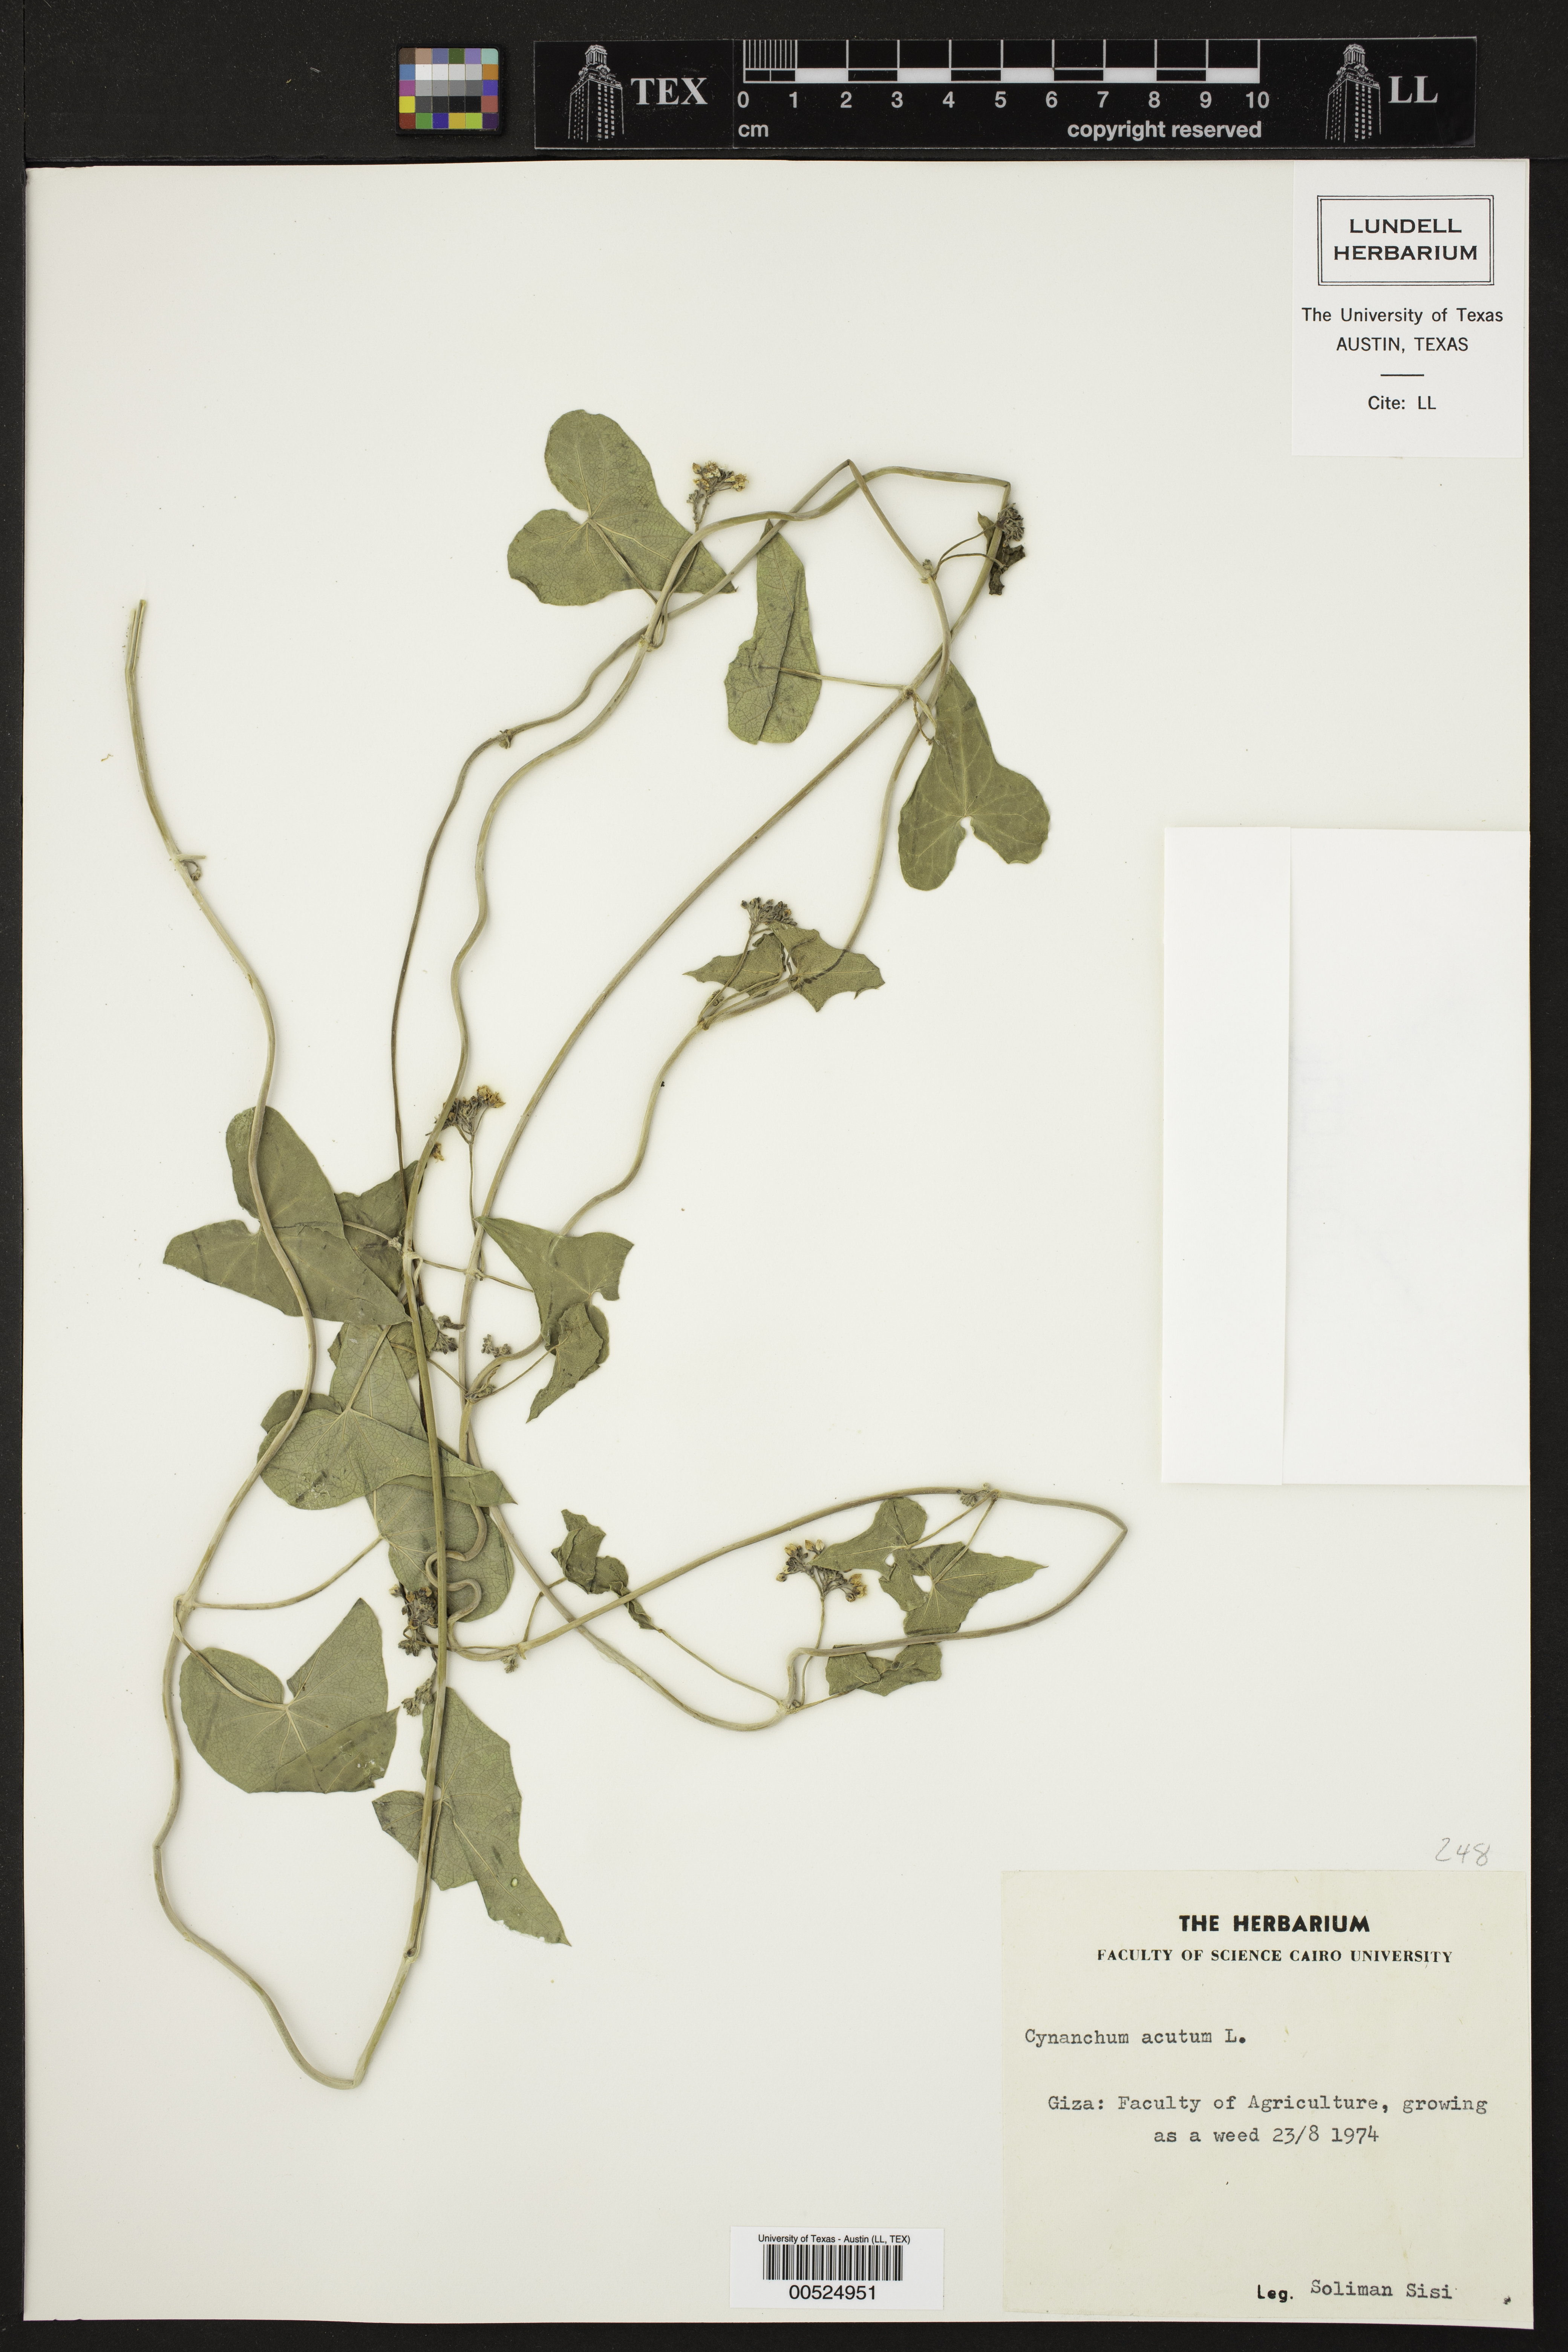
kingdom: Plantae
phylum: Tracheophyta
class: Magnoliopsida
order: Gentianales
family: Apocynaceae
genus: Cynanchum
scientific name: Cynanchum acutum
